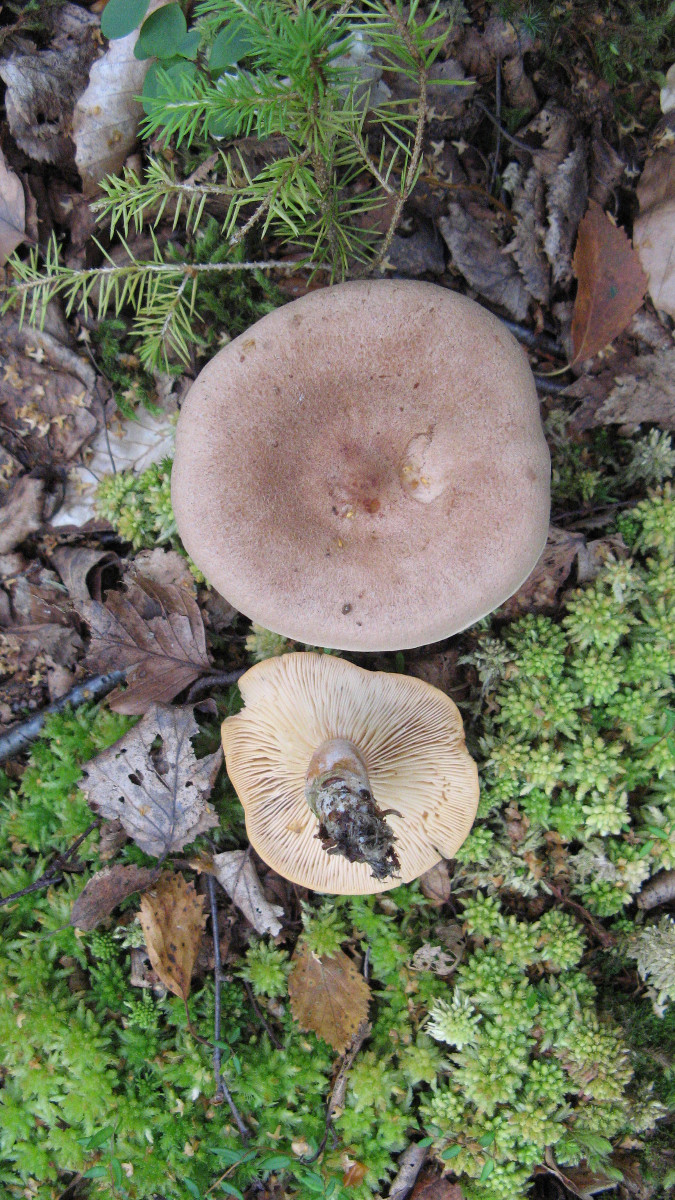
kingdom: Fungi
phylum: Basidiomycota
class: Agaricomycetes
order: Russulales
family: Russulaceae
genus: Lactarius
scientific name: Lactarius helvus
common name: mose-mælkehat
